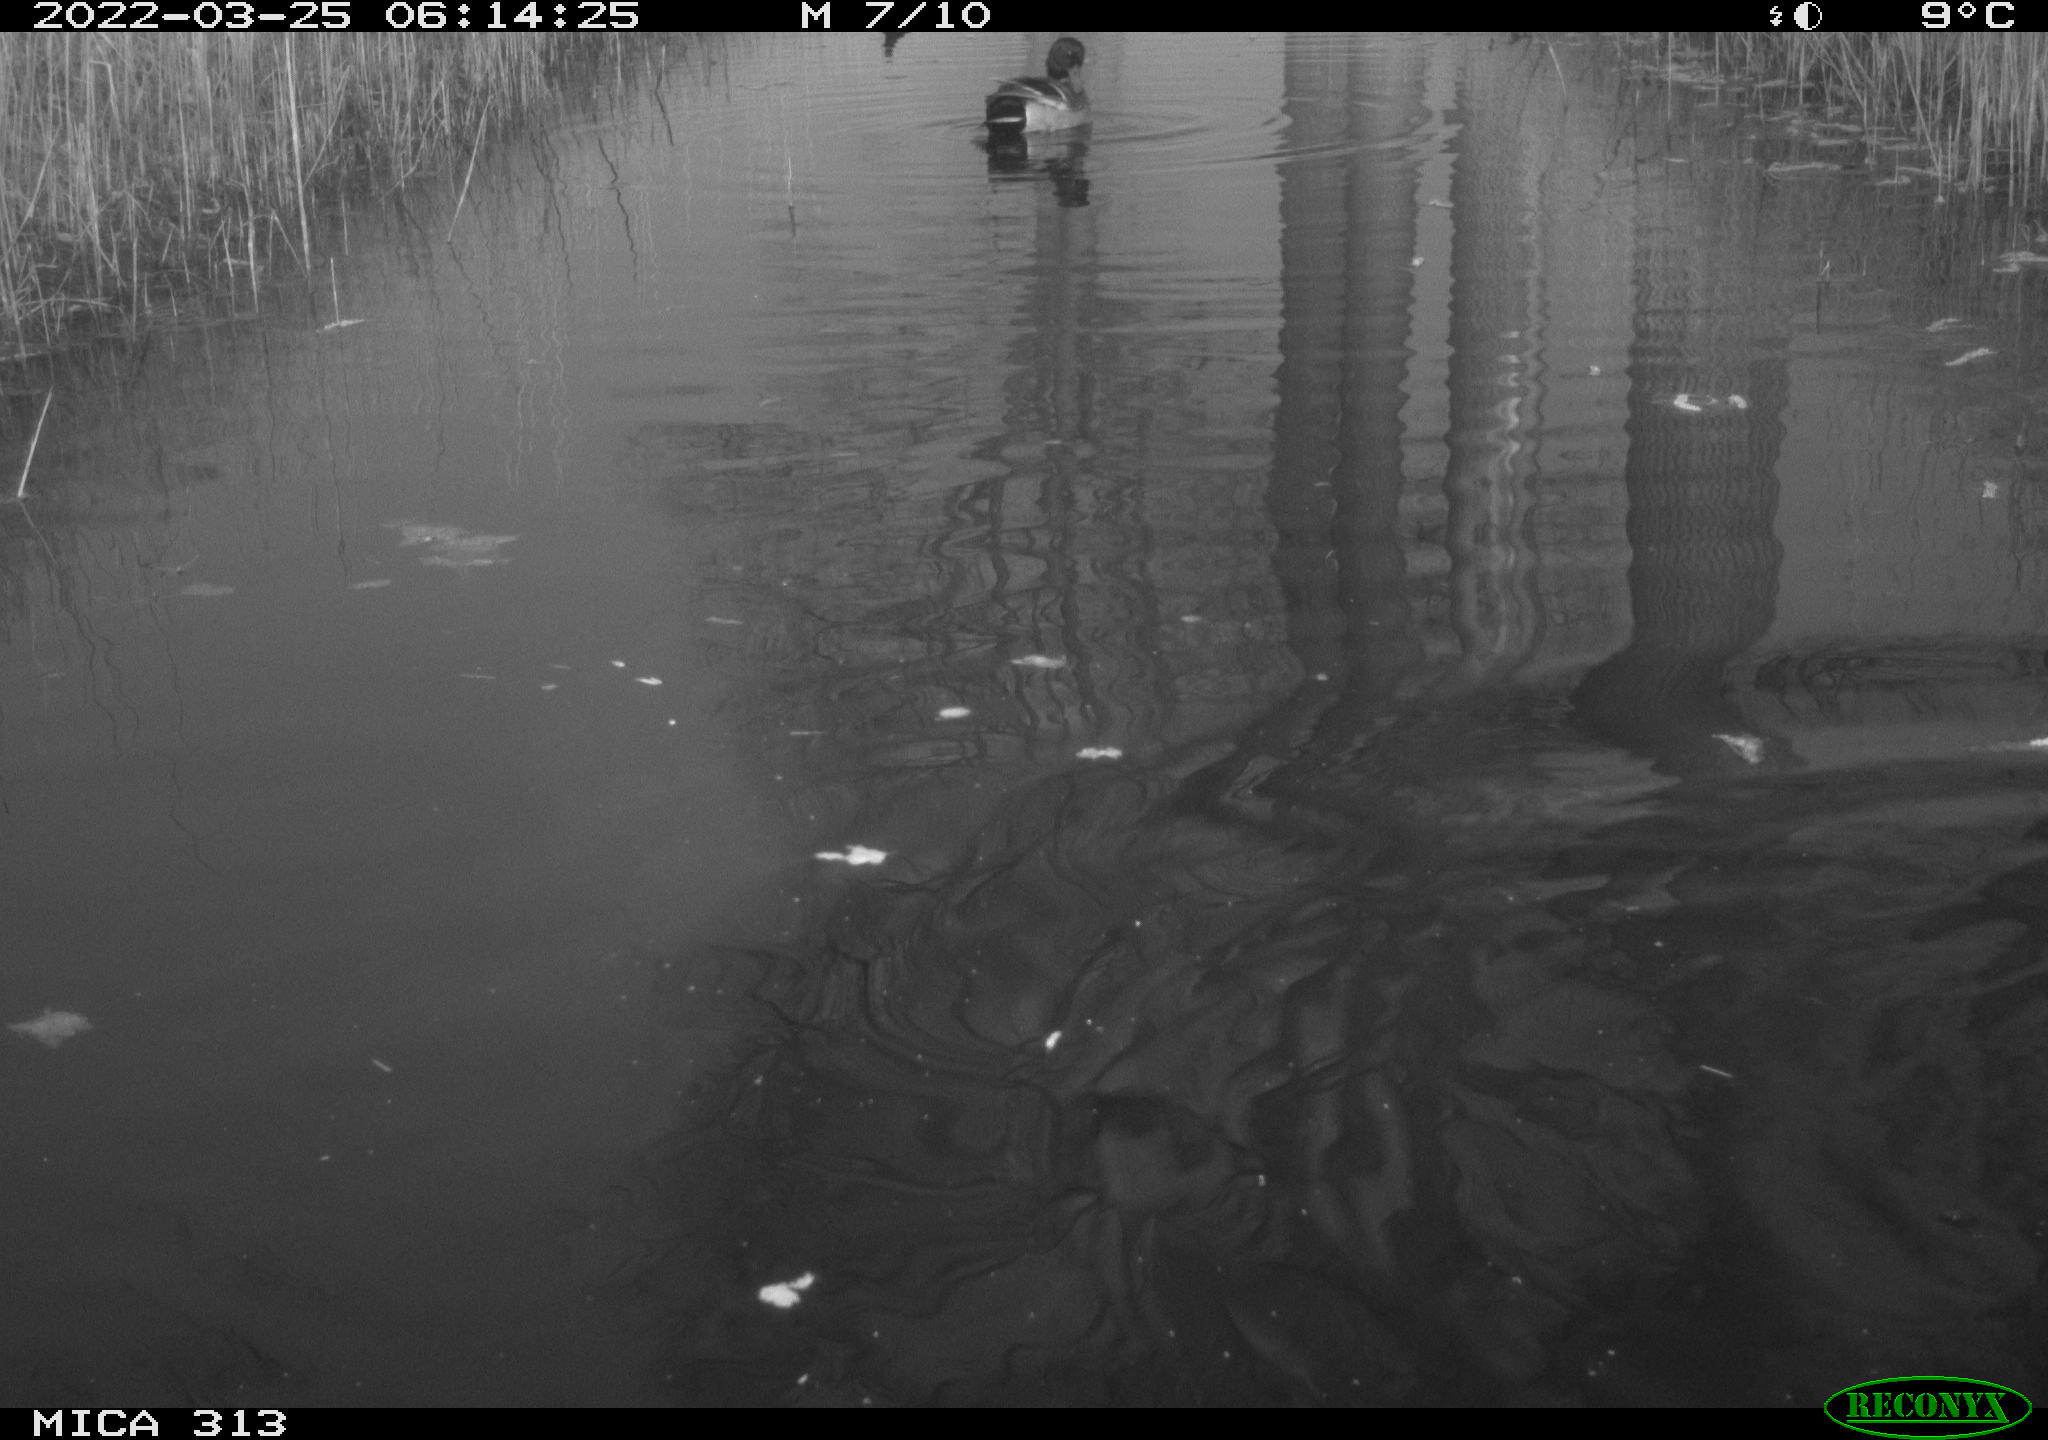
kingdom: Animalia
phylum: Chordata
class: Aves
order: Anseriformes
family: Anatidae
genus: Anas
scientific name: Anas platyrhynchos
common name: Mallard
